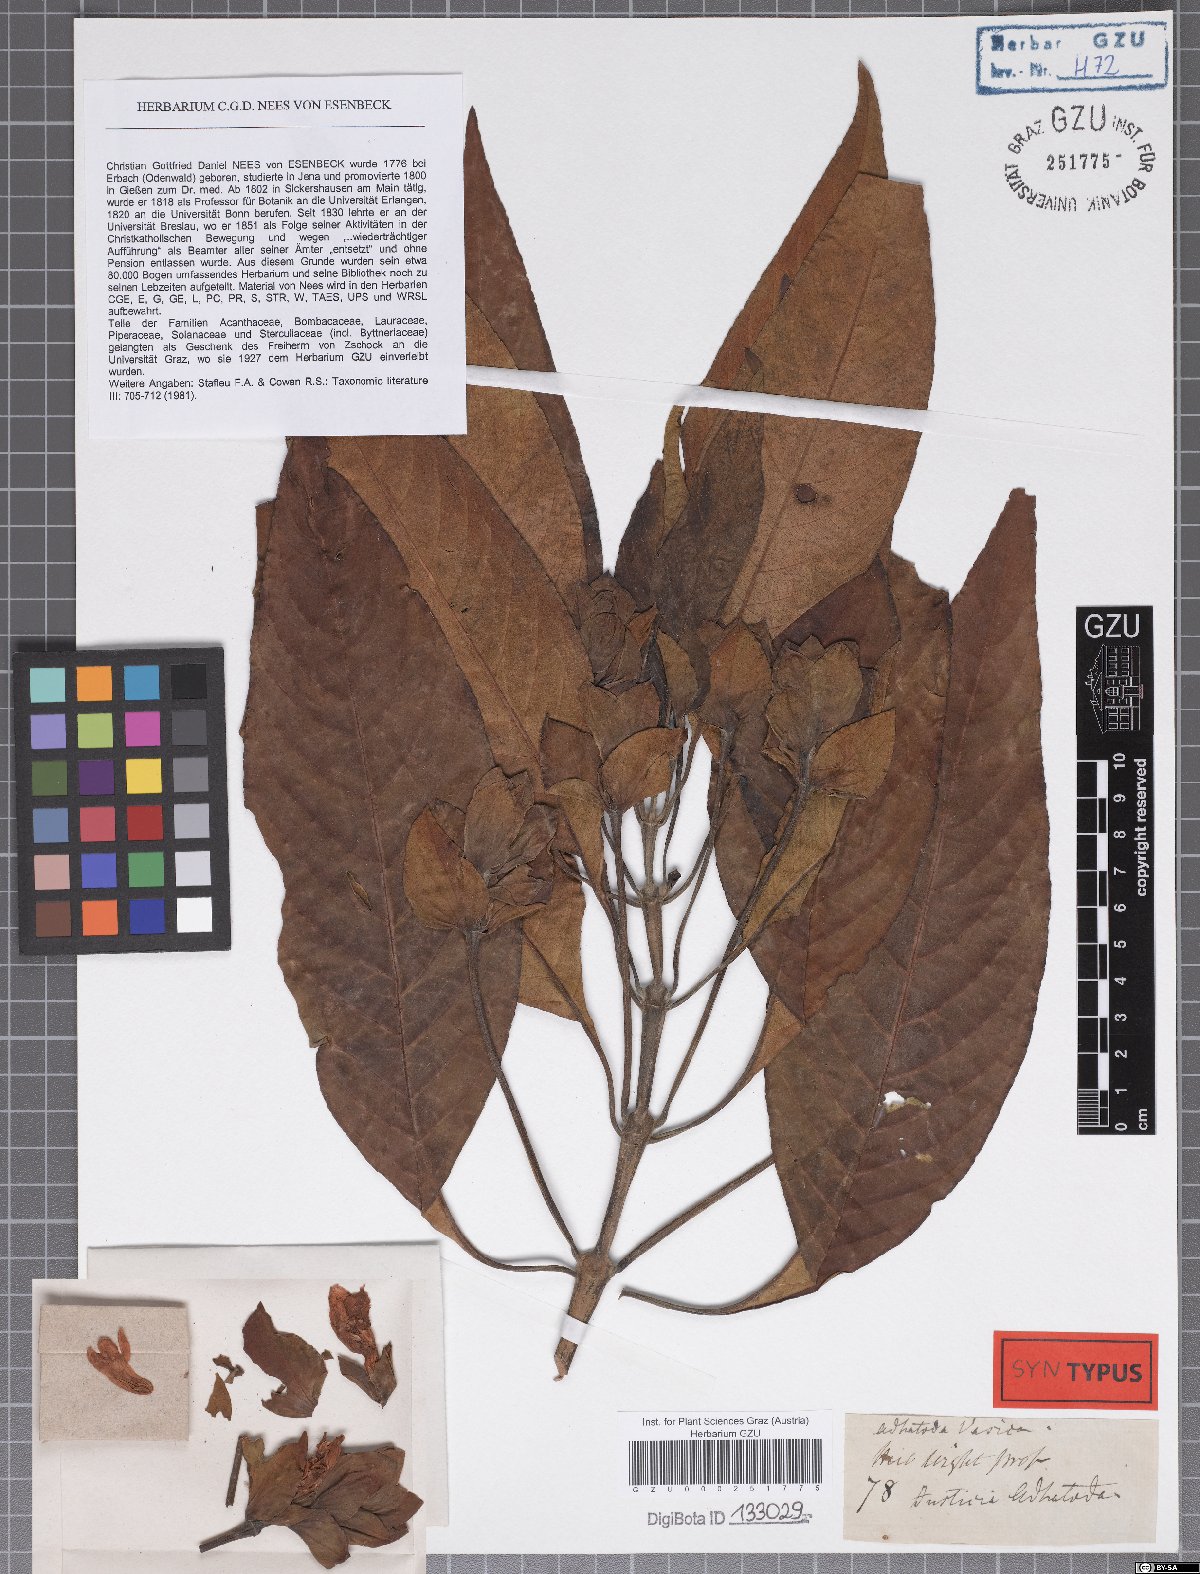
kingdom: Plantae
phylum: Tracheophyta
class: Magnoliopsida
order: Lamiales
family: Acanthaceae
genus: Justicia
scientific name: Justicia adhatoda
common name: Malabar nut
